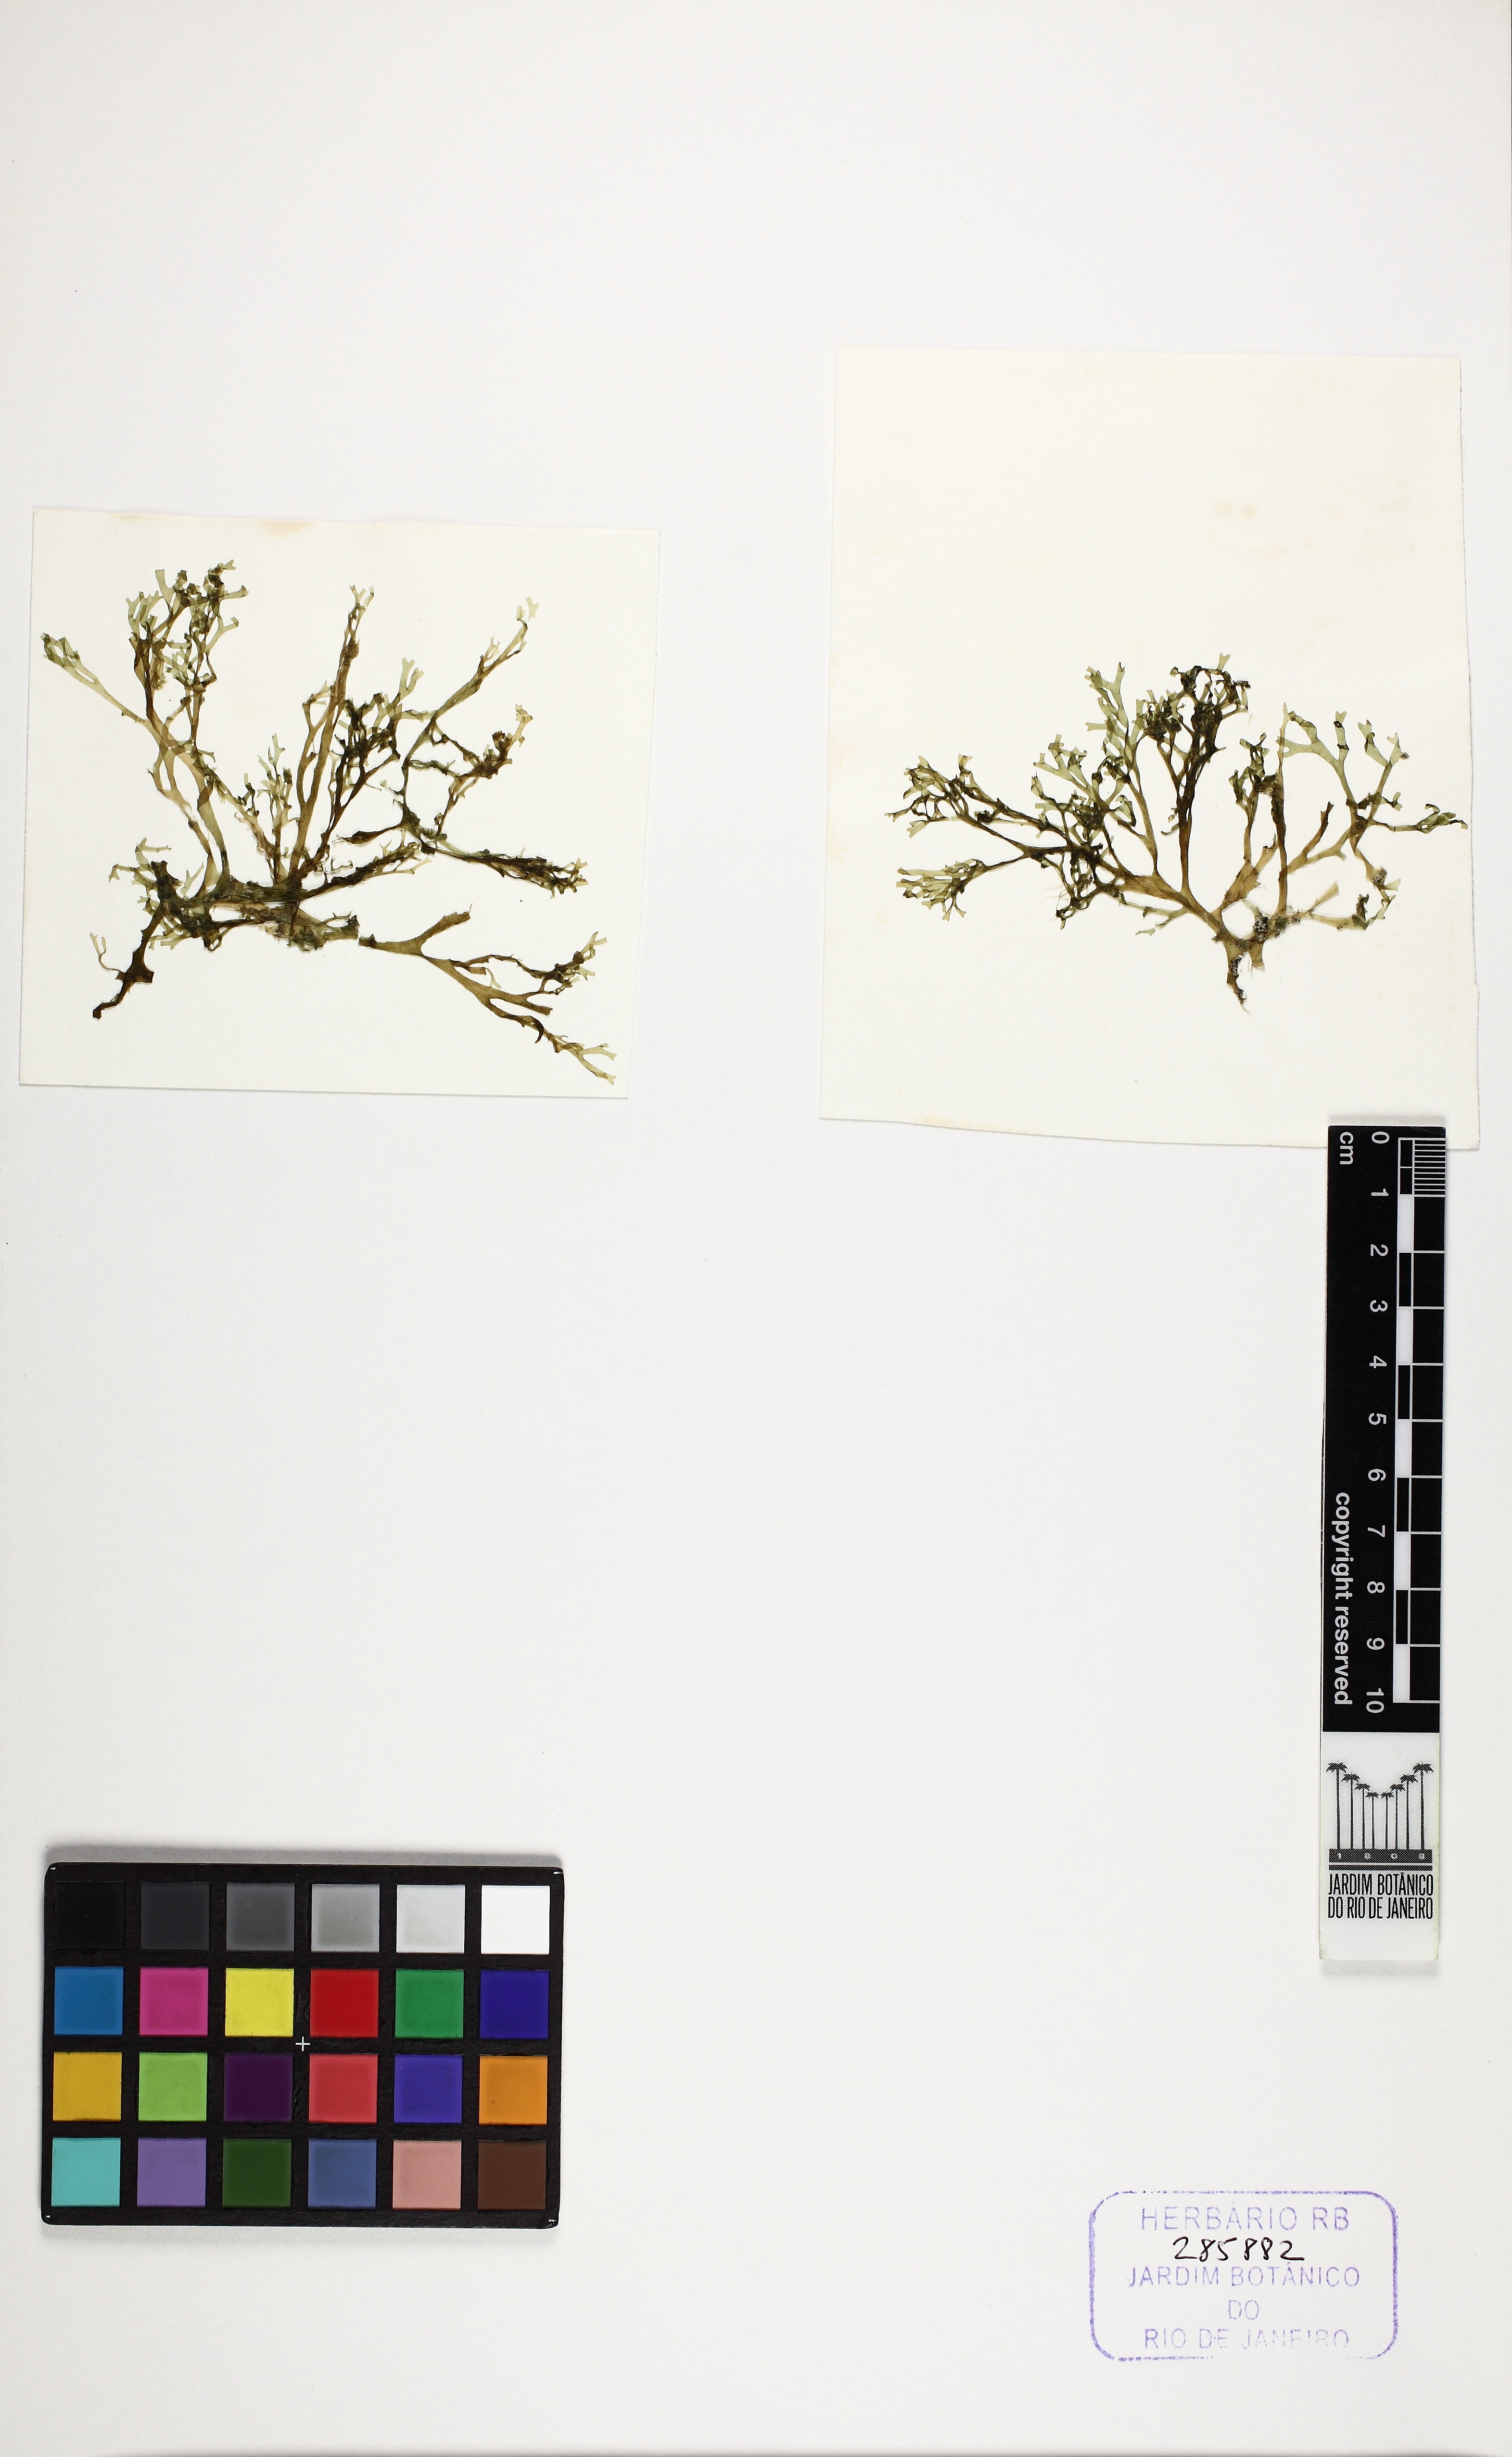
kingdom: Chromista
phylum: Ochrophyta
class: Phaeophyceae
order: Dictyotales
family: Dictyotaceae
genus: Canistrocarpus
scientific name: Canistrocarpus cervicornis
